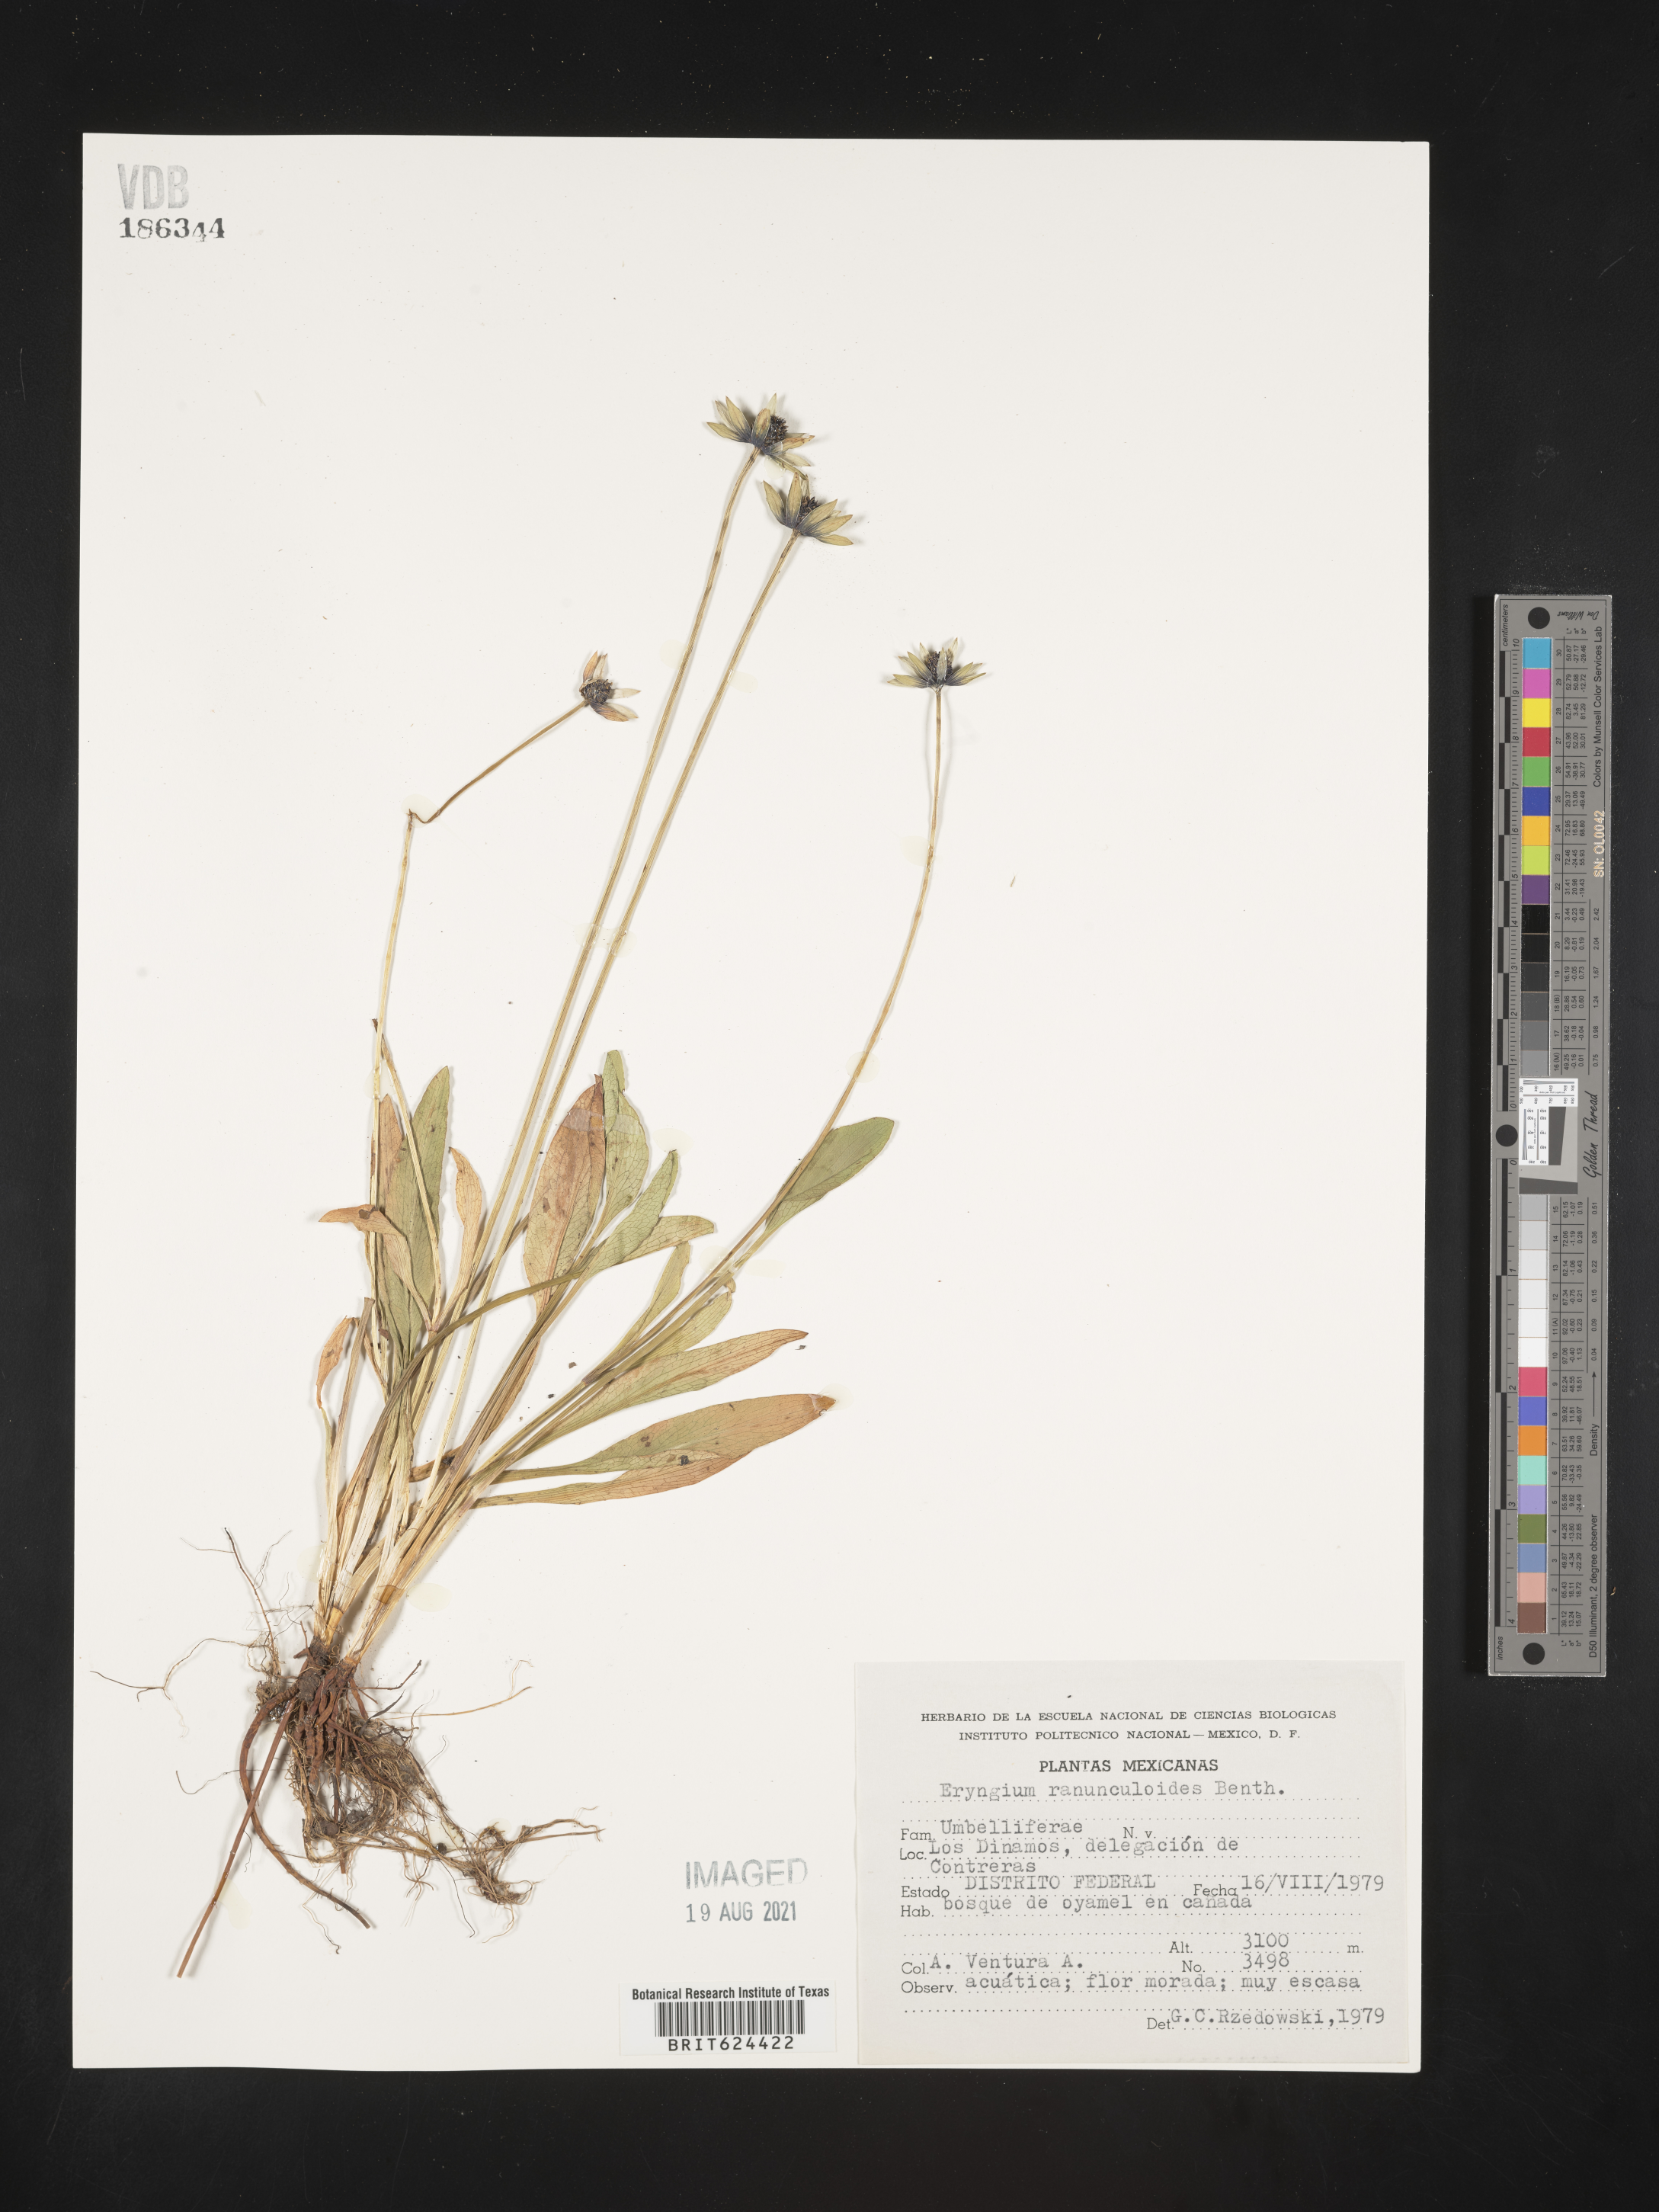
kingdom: Plantae
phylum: Tracheophyta
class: Magnoliopsida
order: Apiales
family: Apiaceae
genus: Eryngium
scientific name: Eryngium
